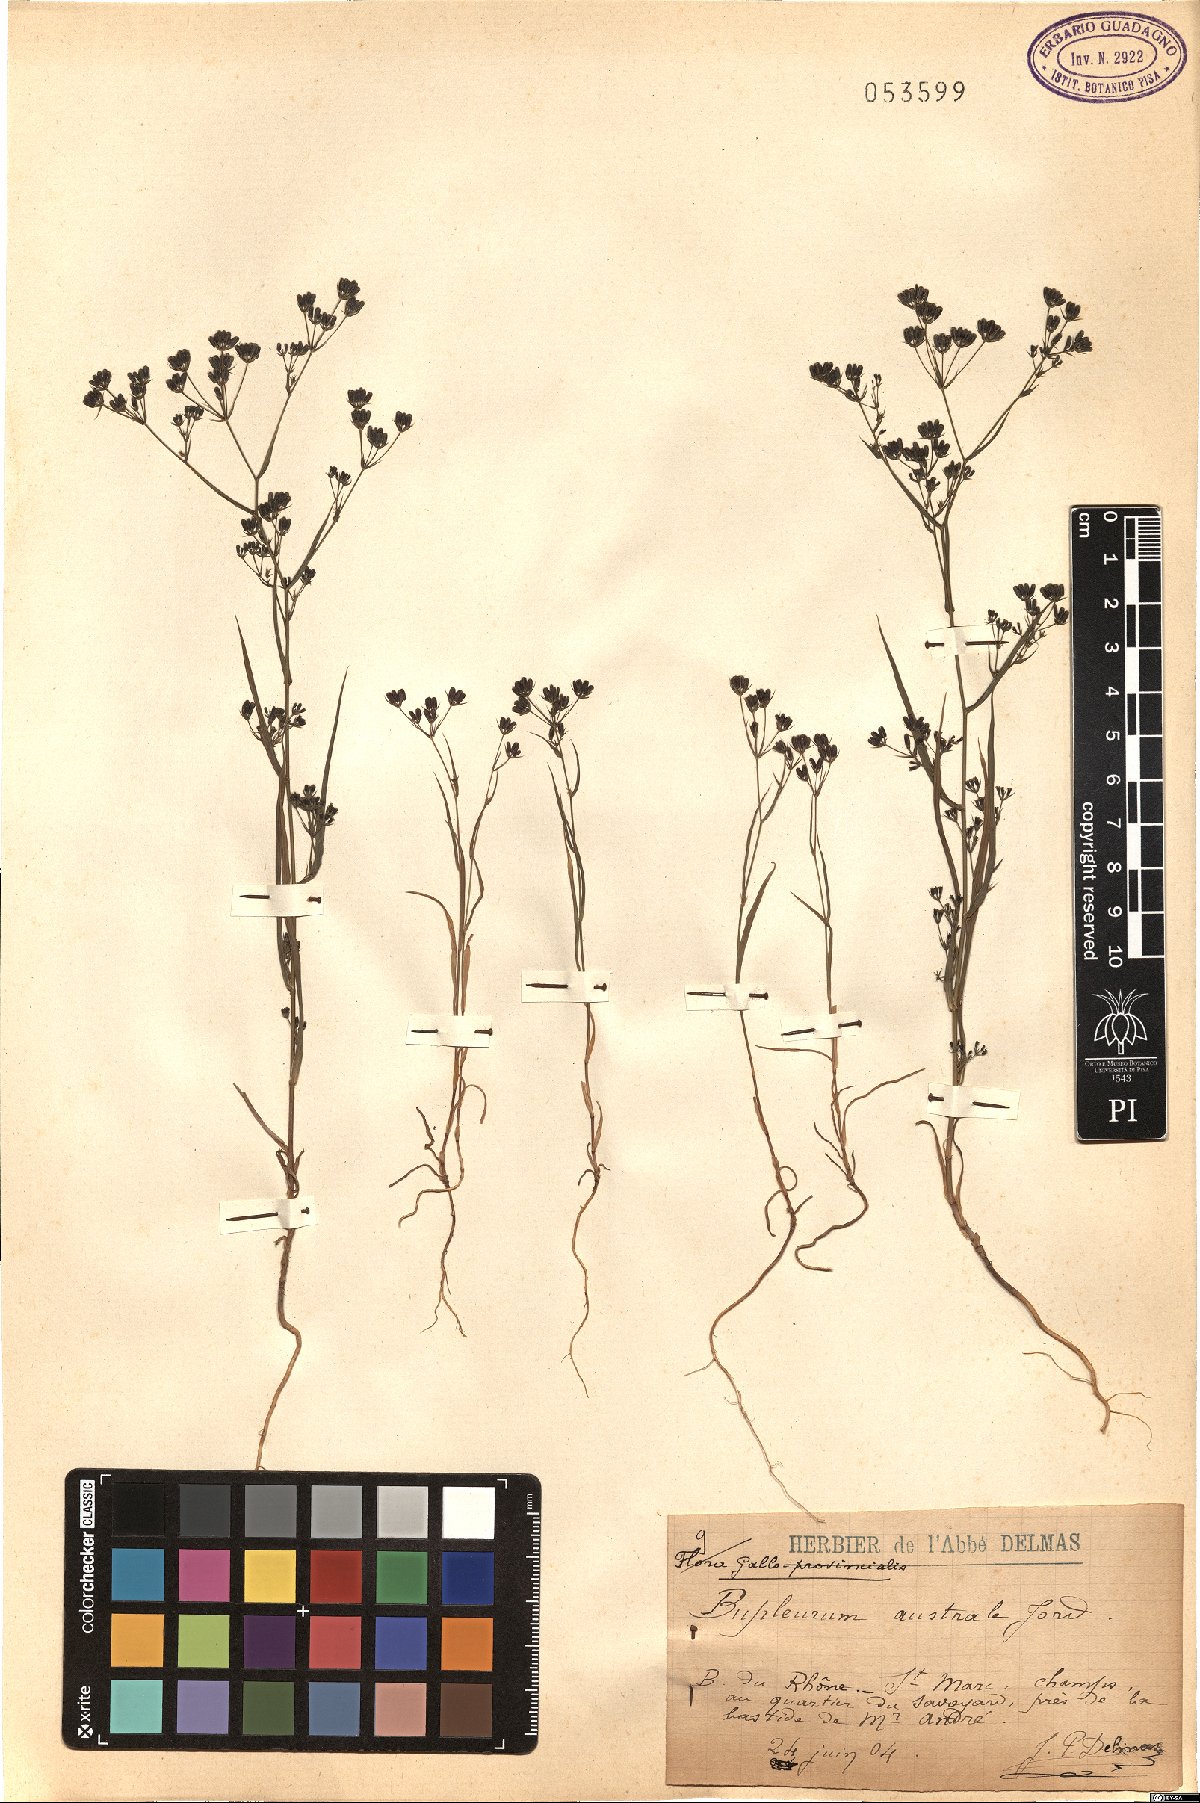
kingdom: Plantae
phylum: Tracheophyta
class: Magnoliopsida
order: Apiales
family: Apiaceae
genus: Bupleurum
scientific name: Bupleurum gerardi
